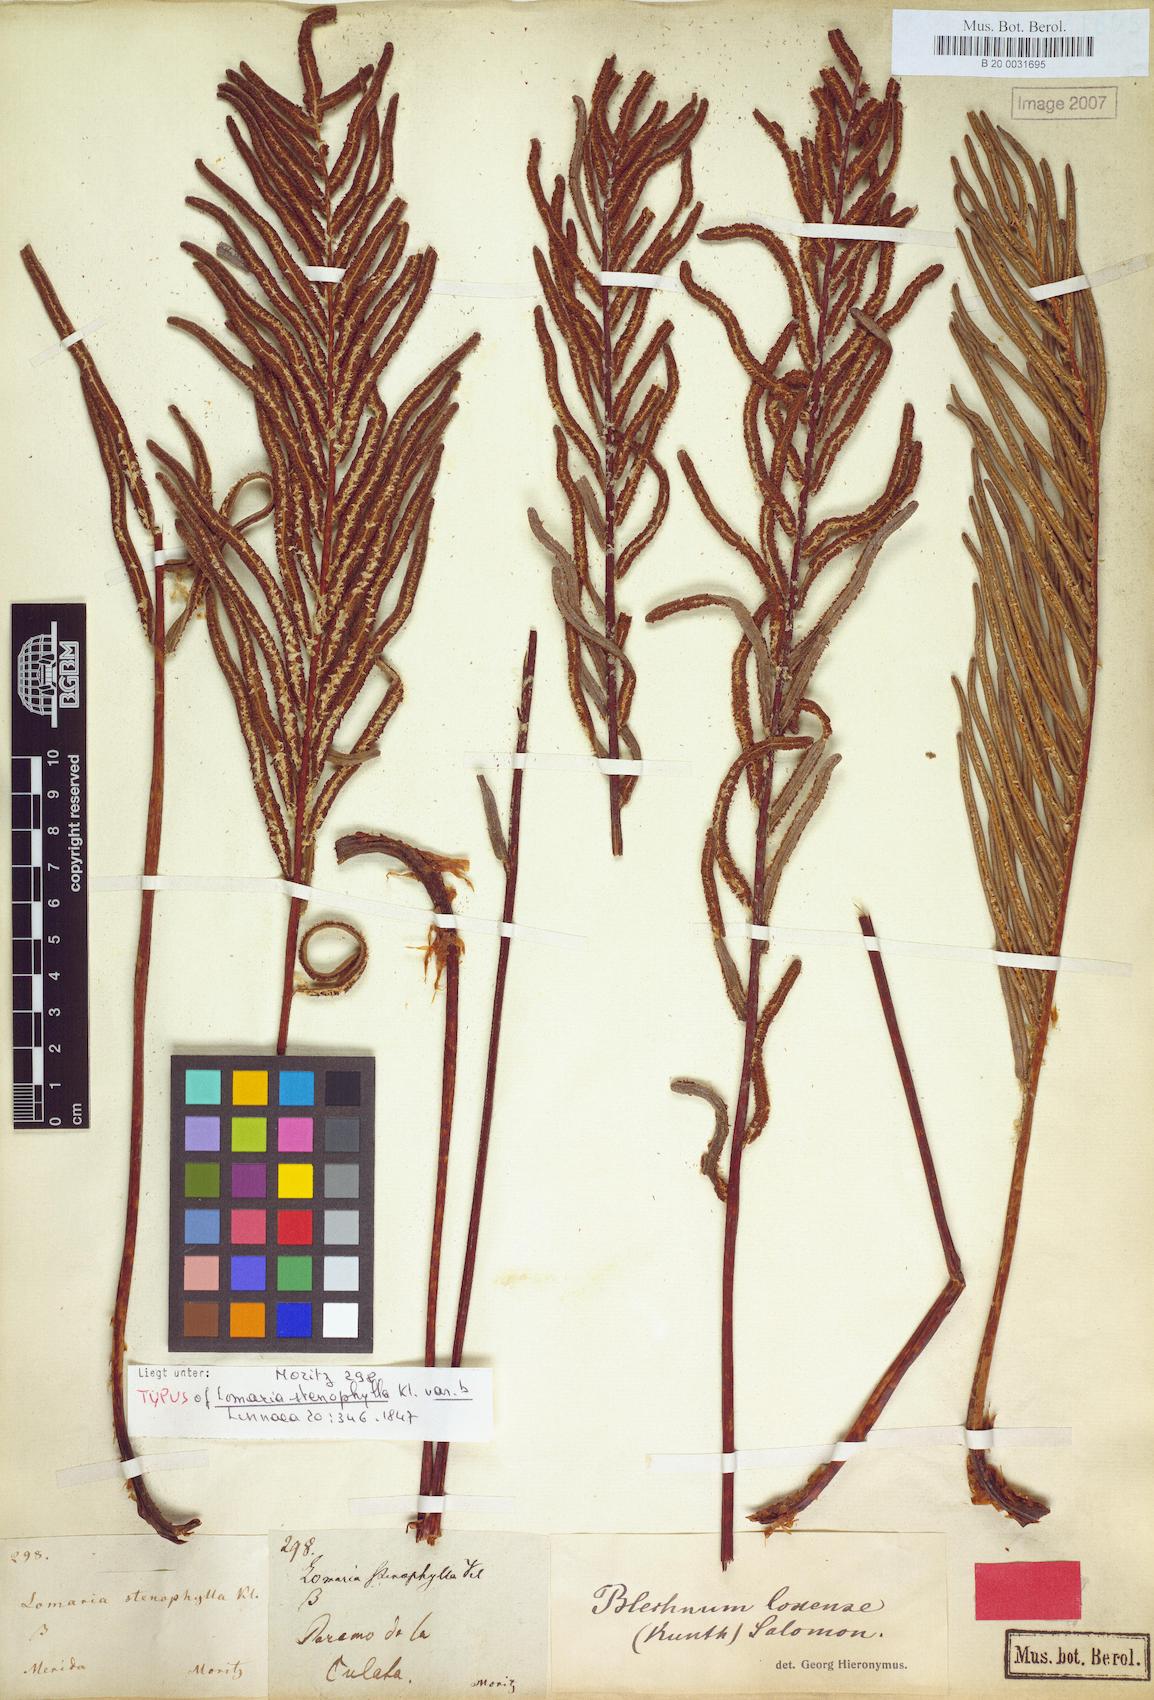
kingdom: Plantae
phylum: Tracheophyta
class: Polypodiopsida
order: Polypodiales
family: Blechnaceae
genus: Parablechnum
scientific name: Parablechnum loxense
